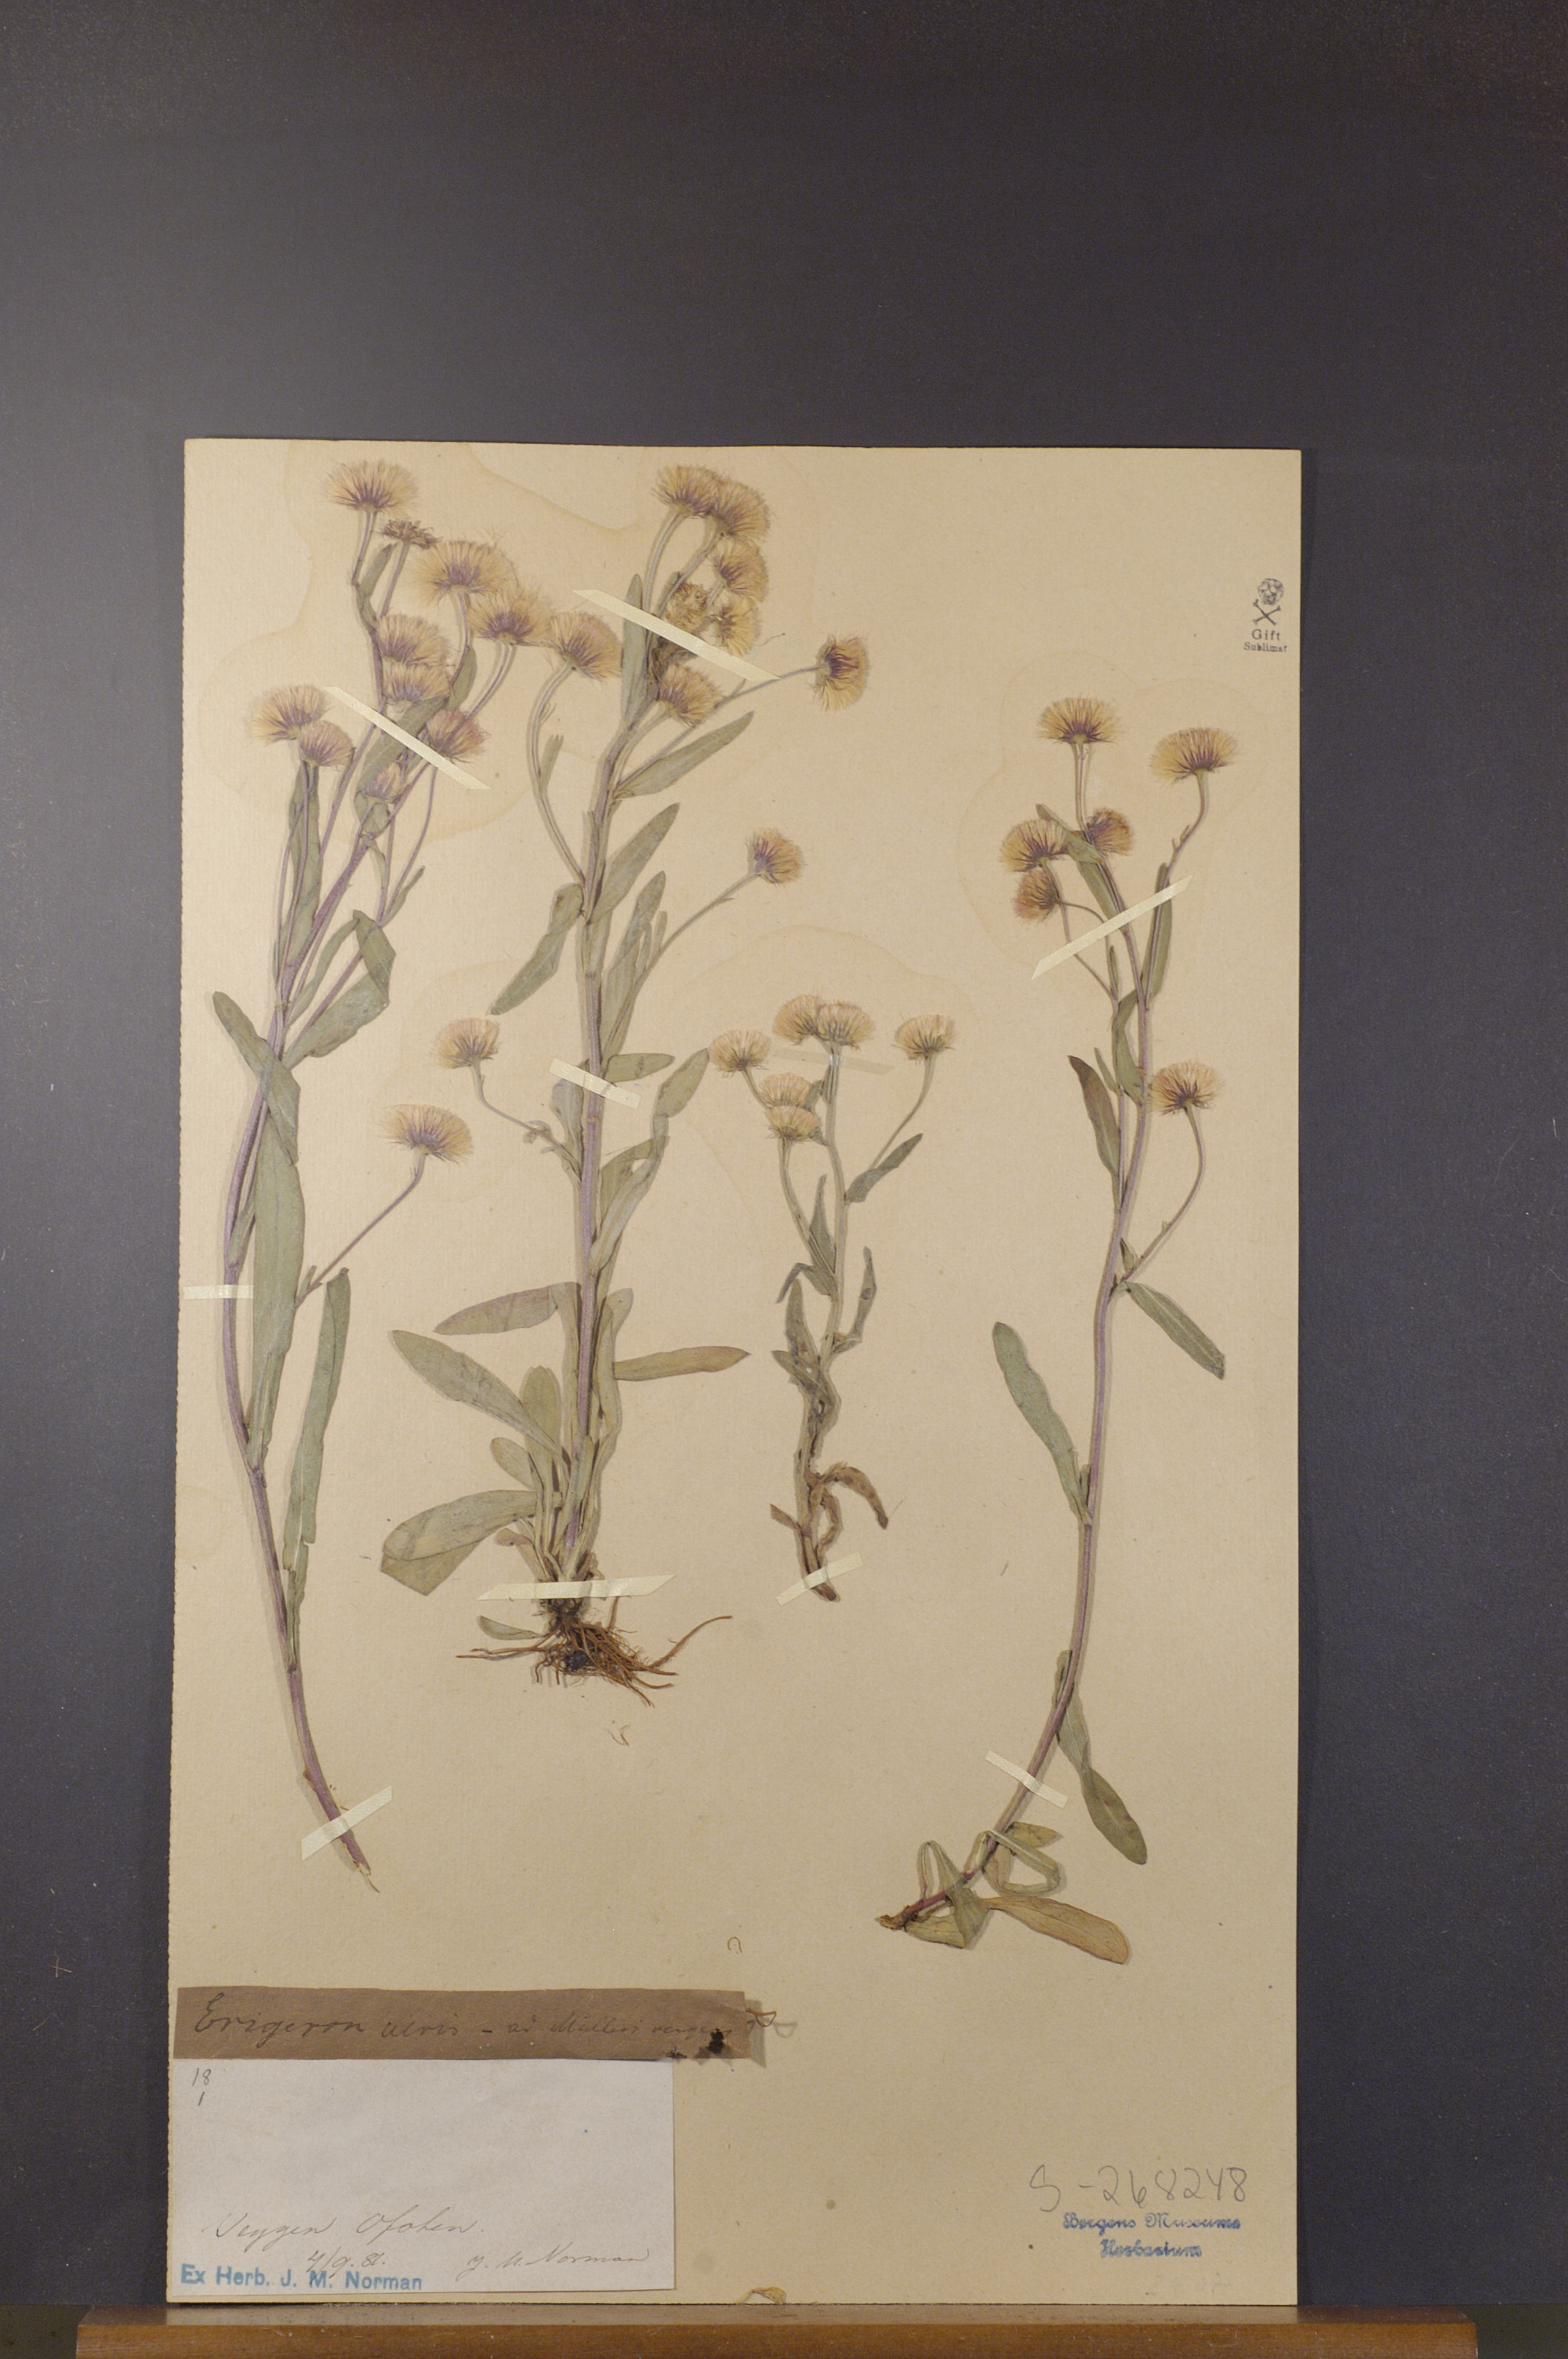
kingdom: Plantae
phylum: Tracheophyta
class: Magnoliopsida
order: Asterales
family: Asteraceae
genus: Erigeron
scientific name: Erigeron acris
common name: Blue fleabane
